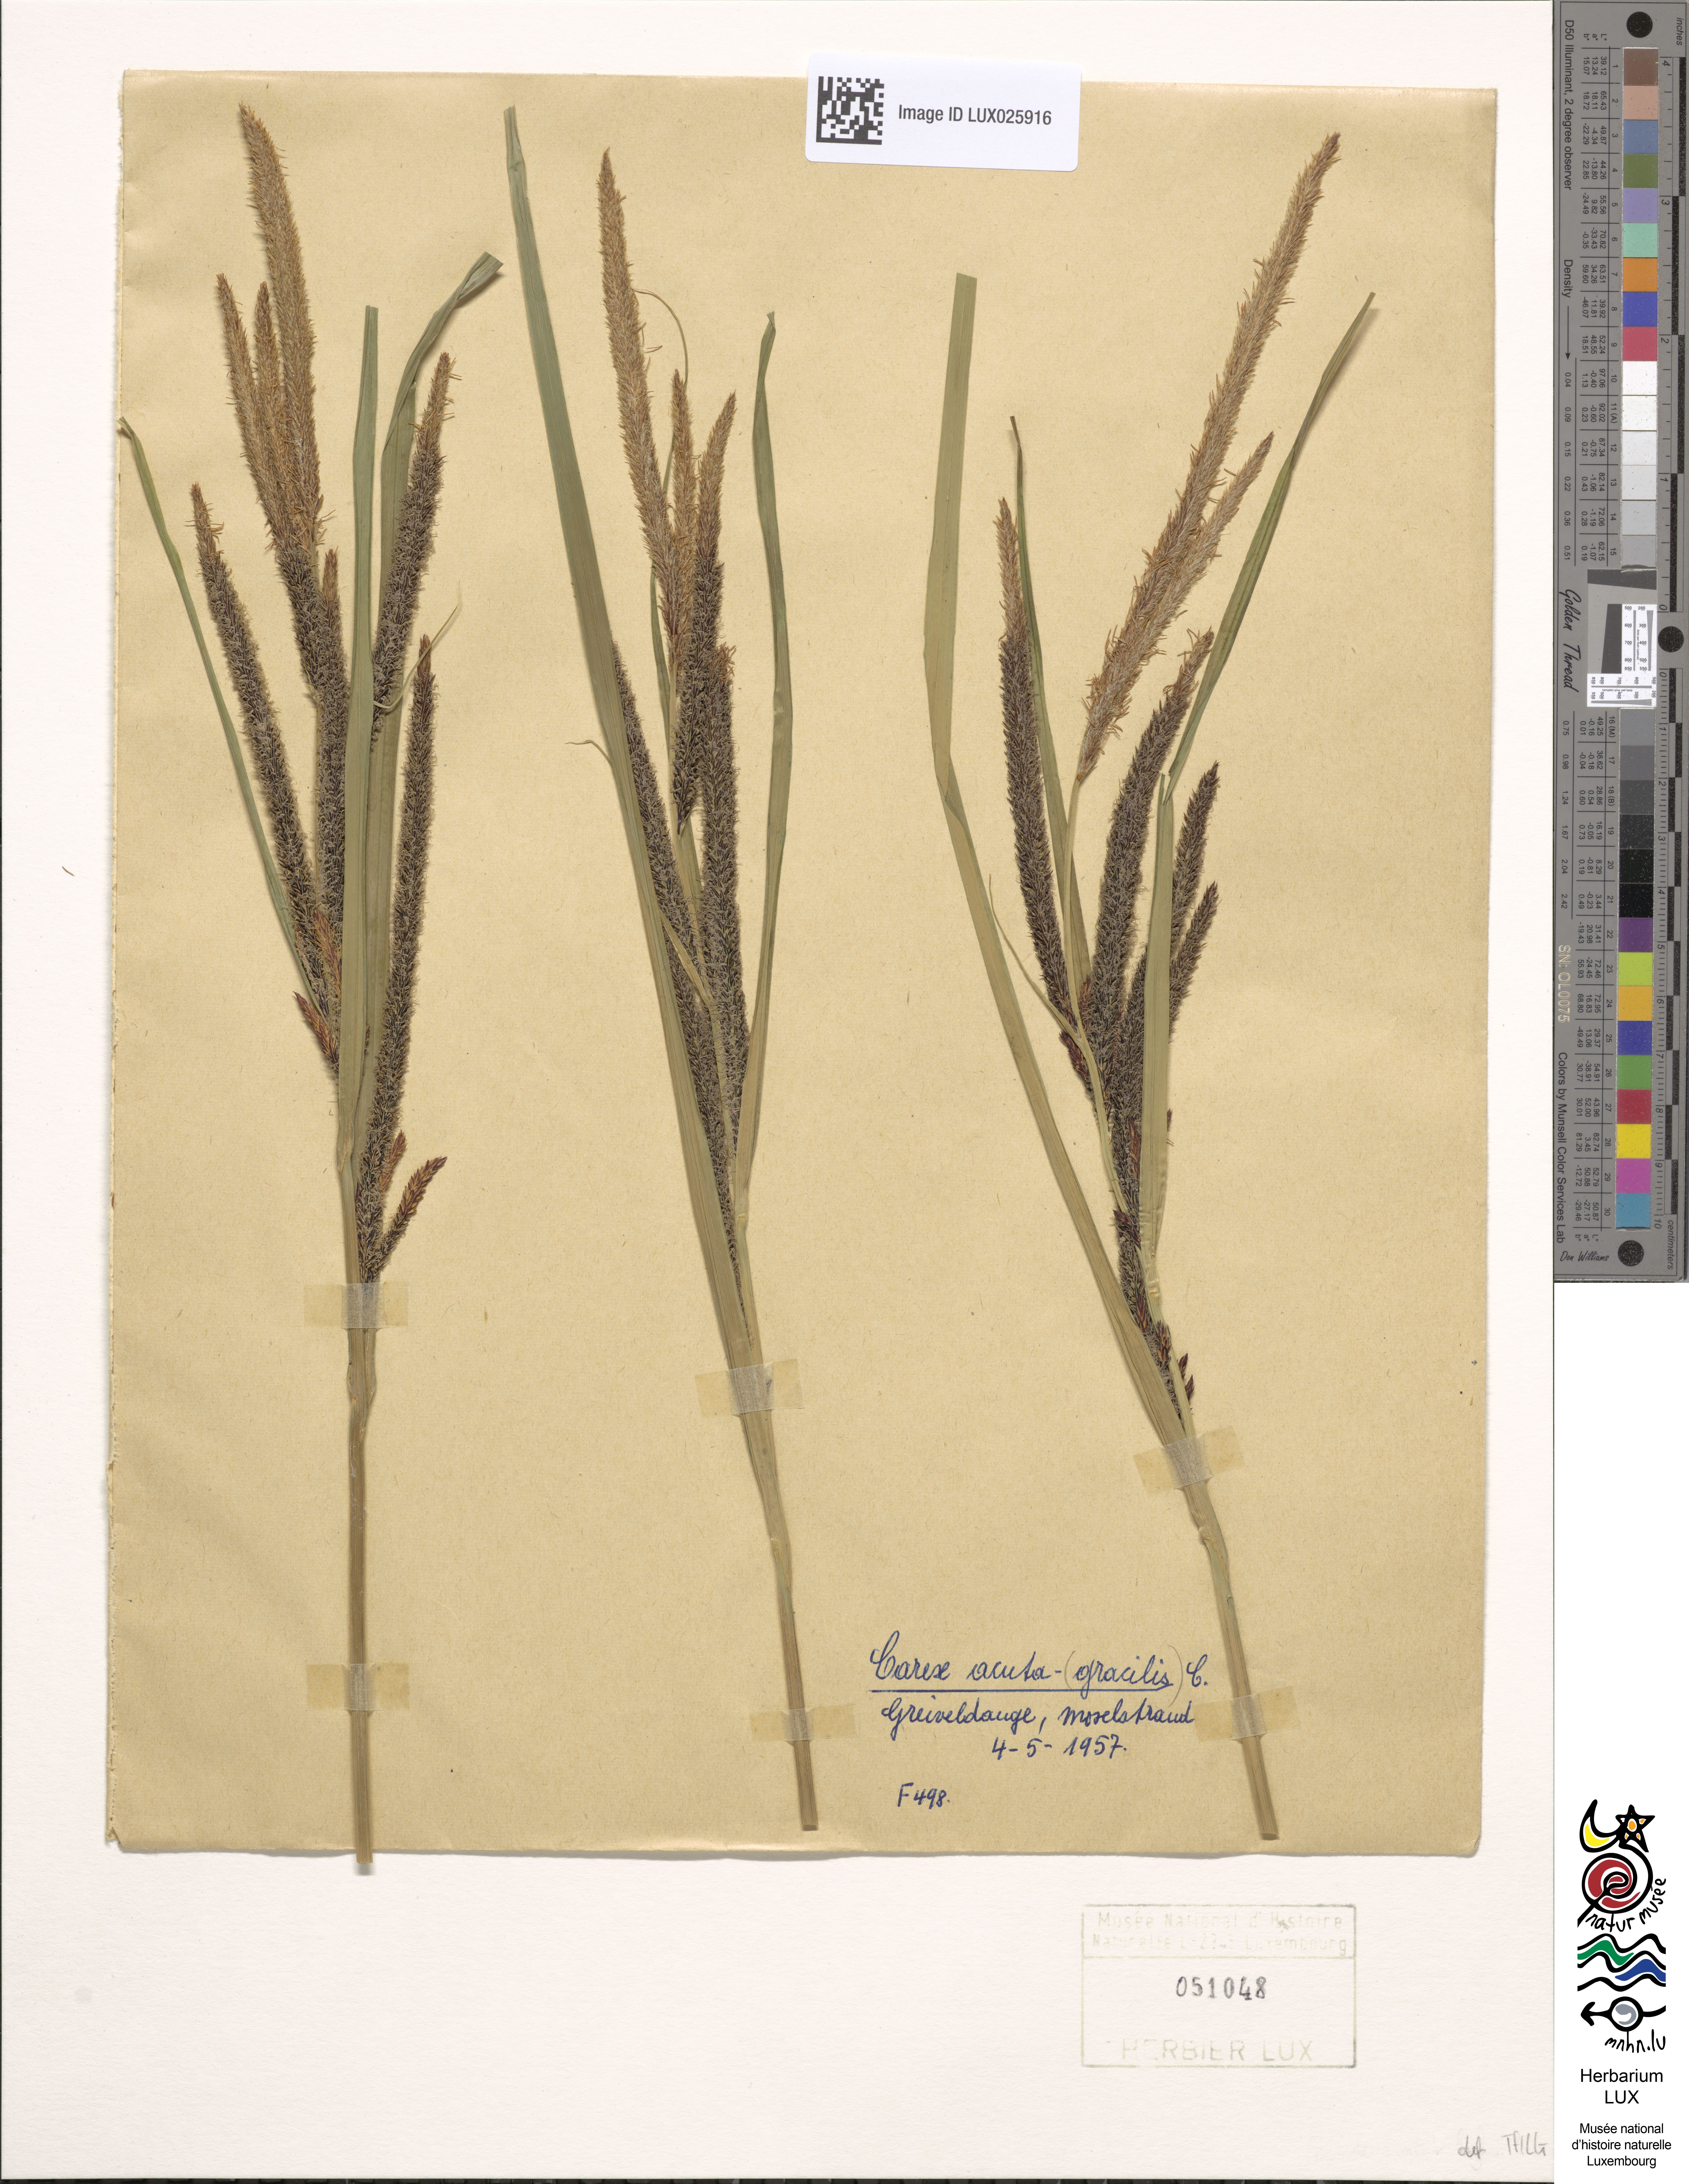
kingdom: Plantae
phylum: Tracheophyta
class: Liliopsida
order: Poales
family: Cyperaceae
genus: Carex
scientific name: Carex acuta
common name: Slender tufted-sedge
